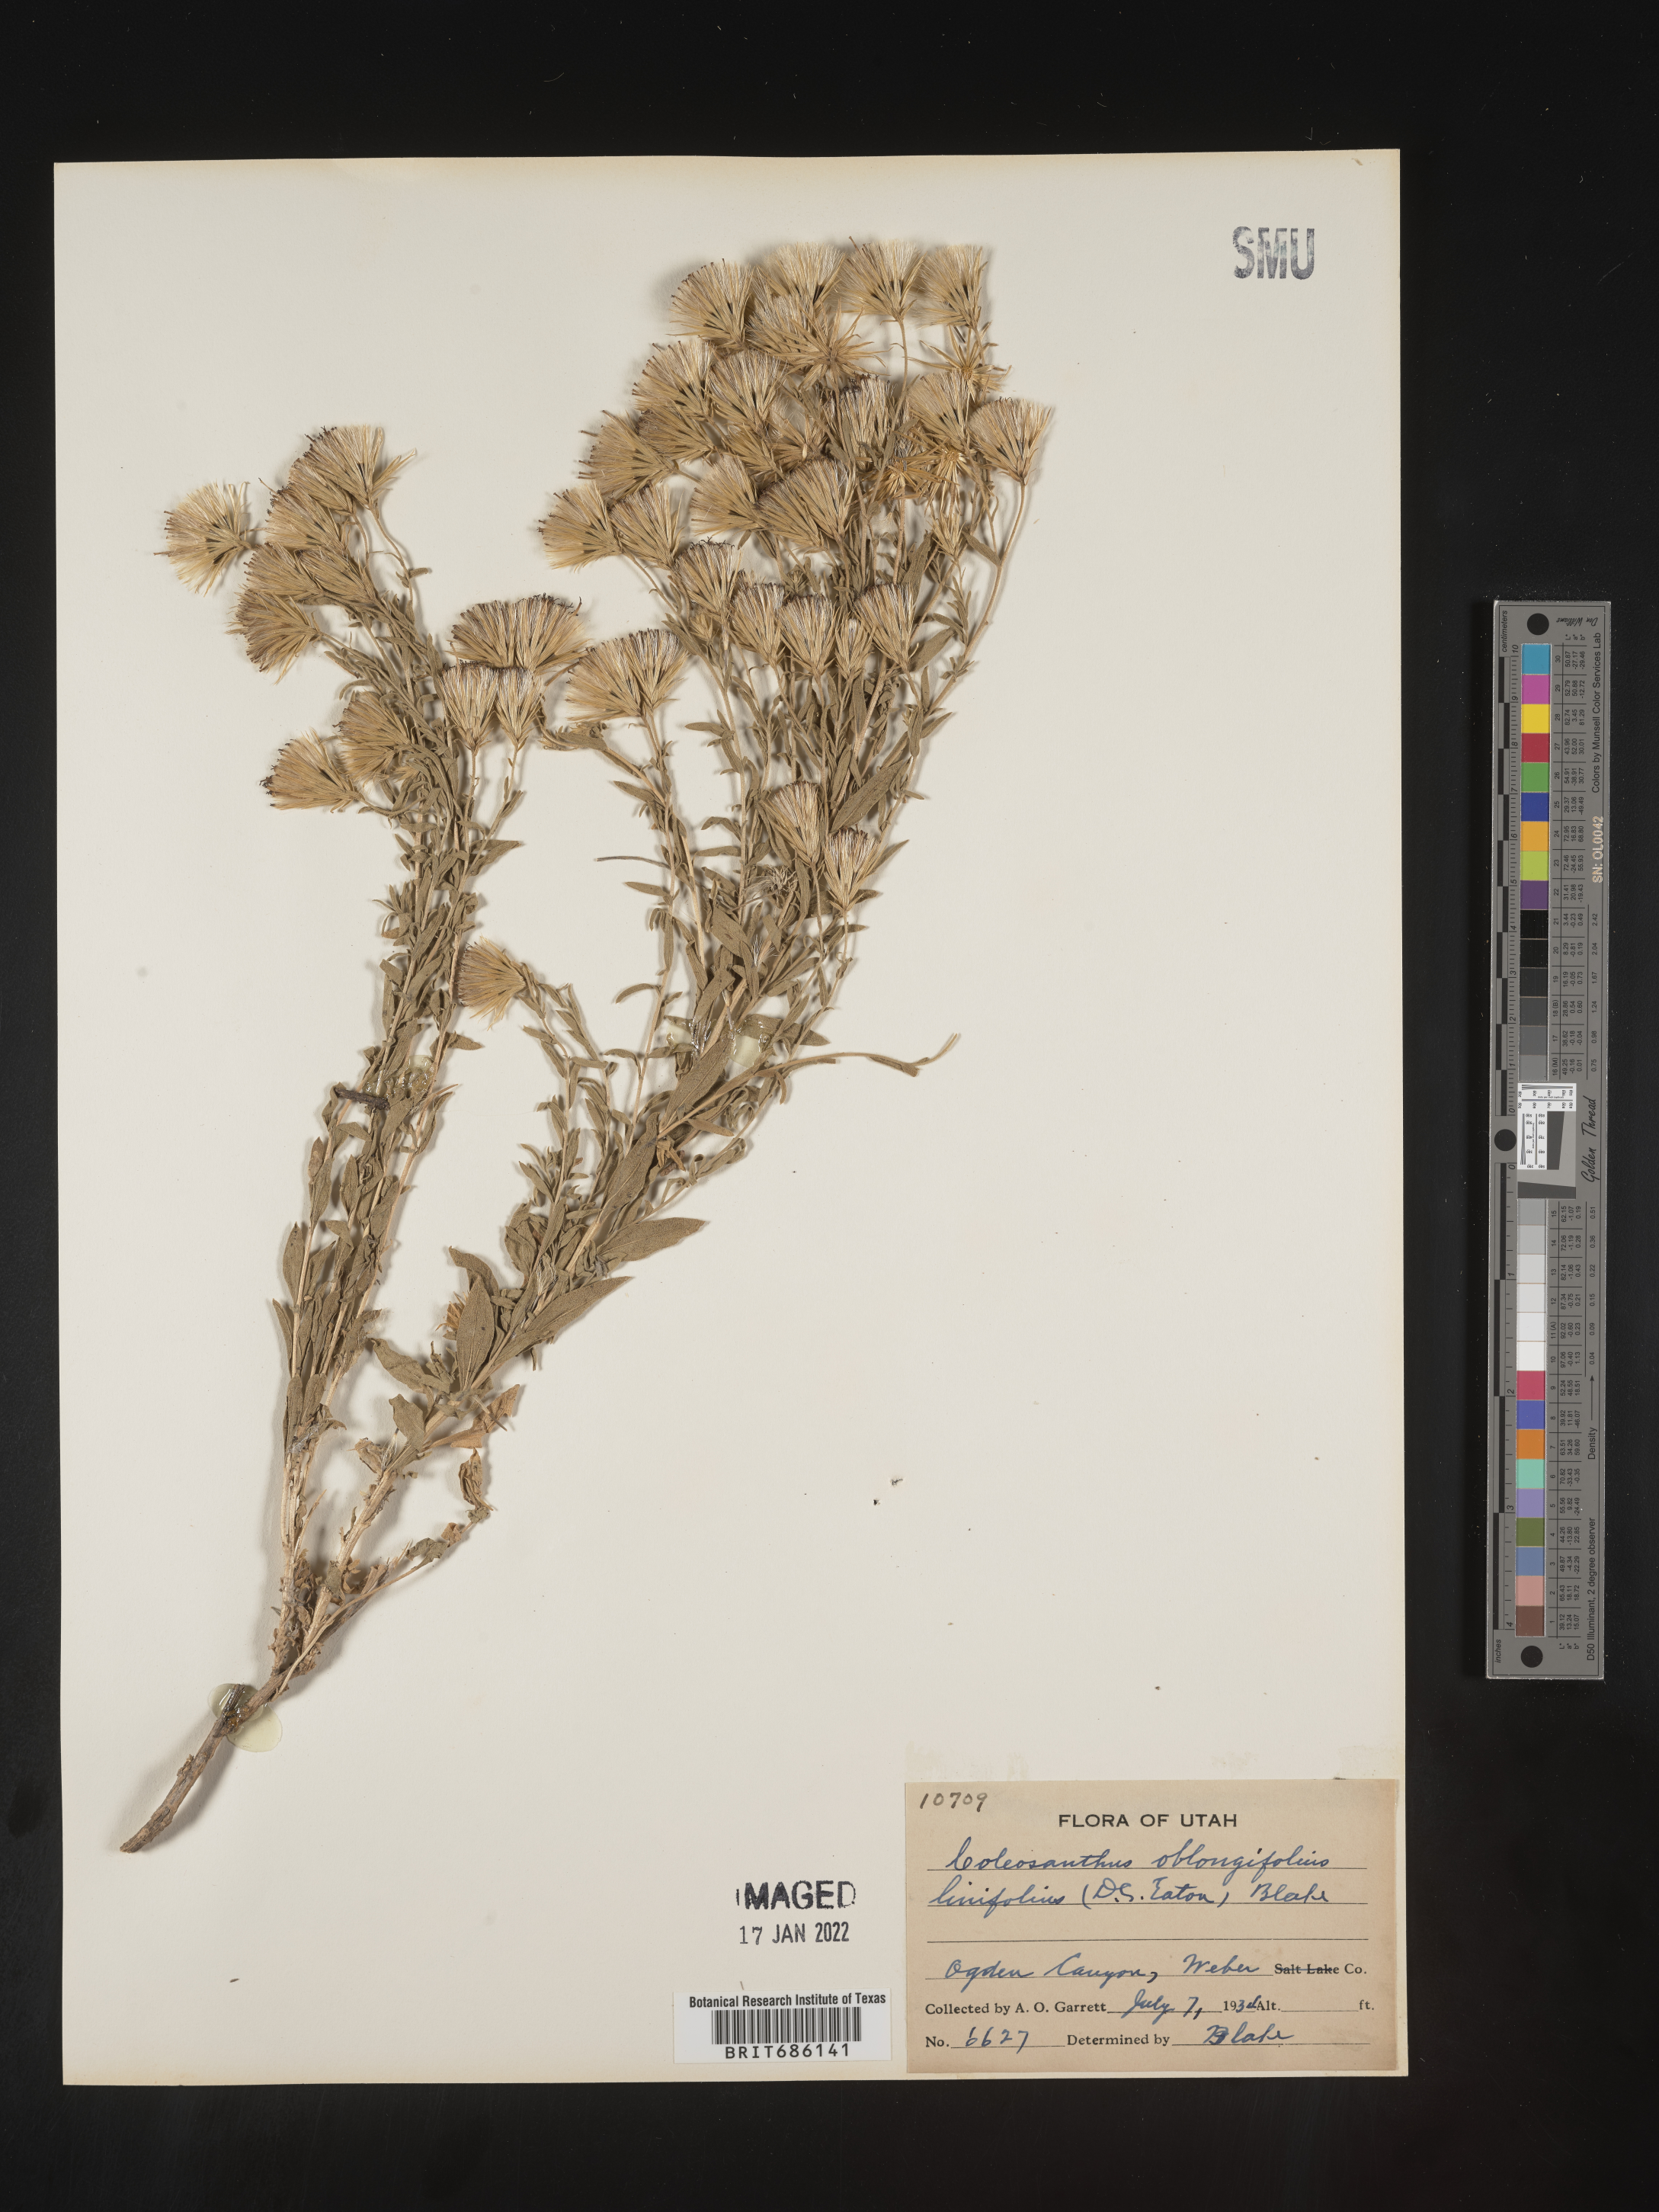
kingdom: Plantae
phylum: Tracheophyta
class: Magnoliopsida
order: Asterales
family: Asteraceae
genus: Brickellia
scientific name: Brickellia oblongifolia
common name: Mojave brickellbush
